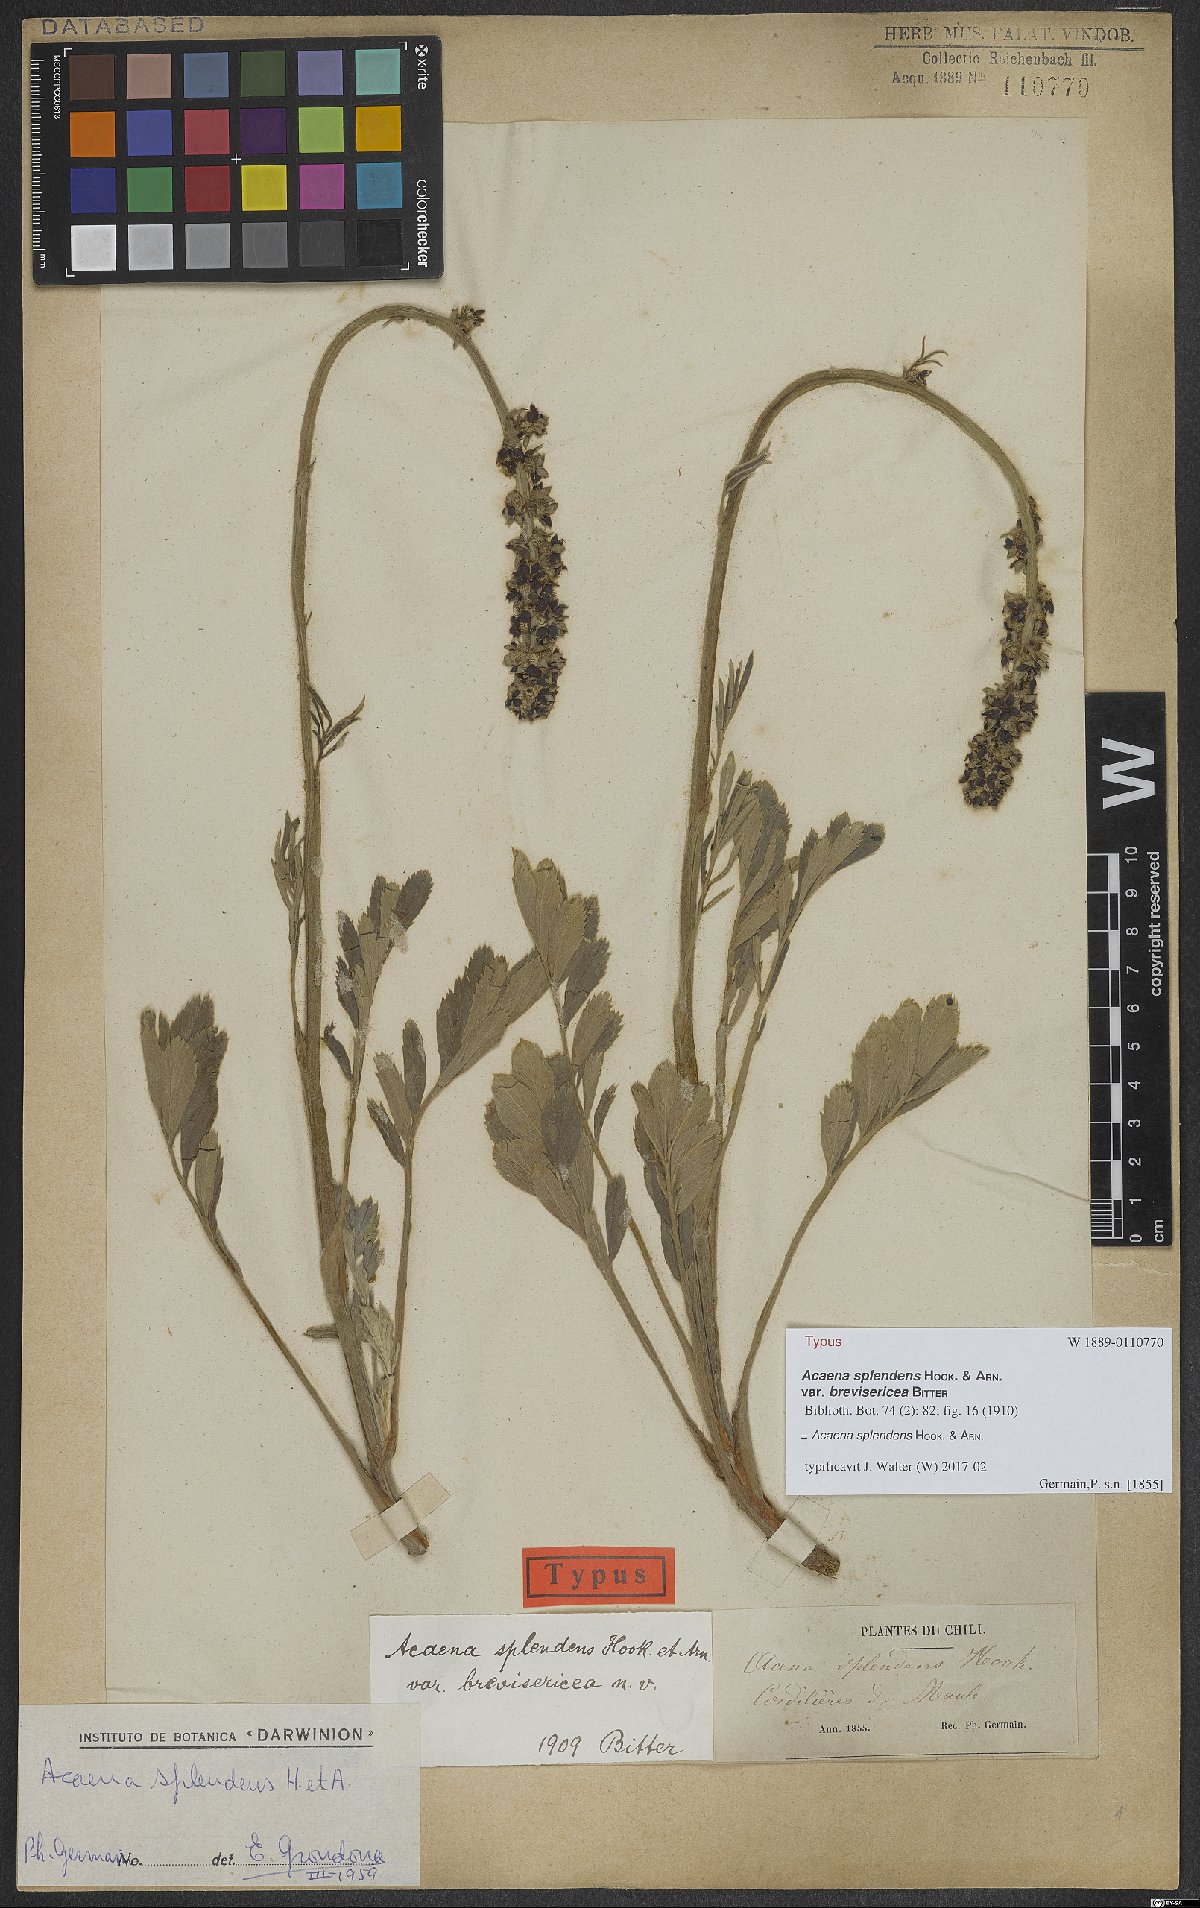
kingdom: Plantae
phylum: Tracheophyta
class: Magnoliopsida
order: Rosales
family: Rosaceae
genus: Acaena
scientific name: Acaena splendens
